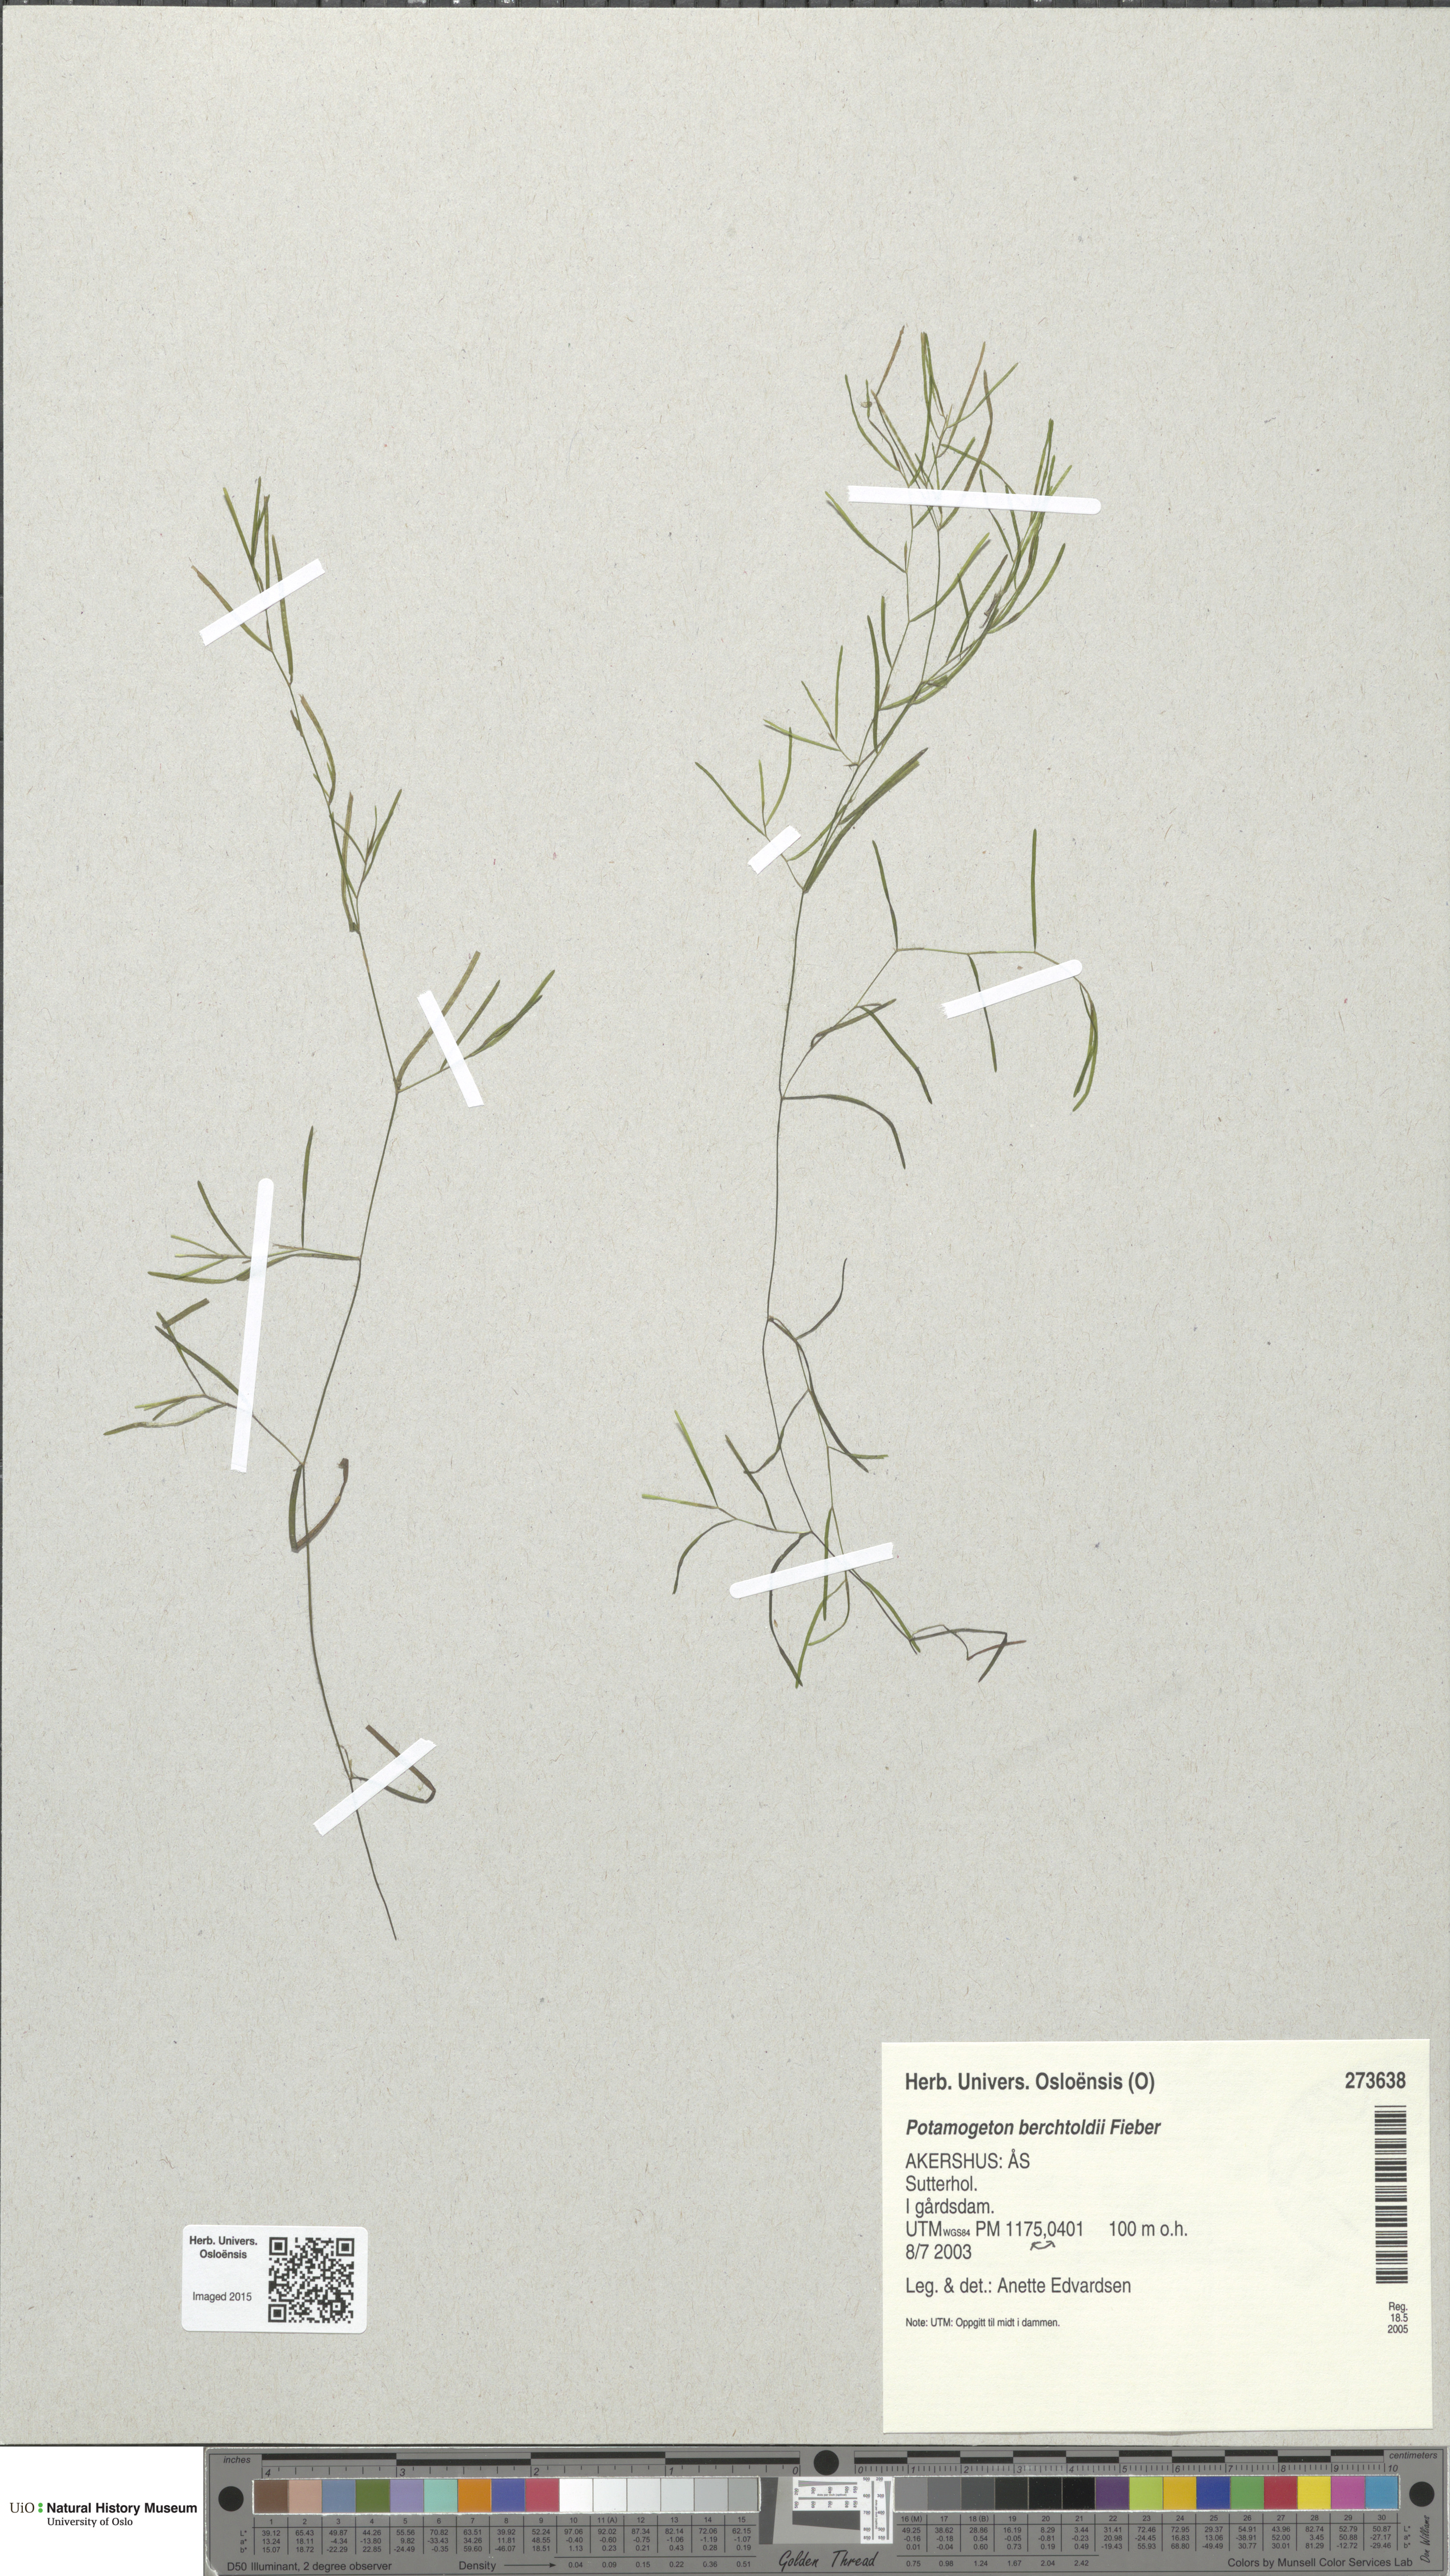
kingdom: Plantae
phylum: Tracheophyta
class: Liliopsida
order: Alismatales
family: Potamogetonaceae
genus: Potamogeton
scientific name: Potamogeton berchtoldii
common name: Small pondweed
